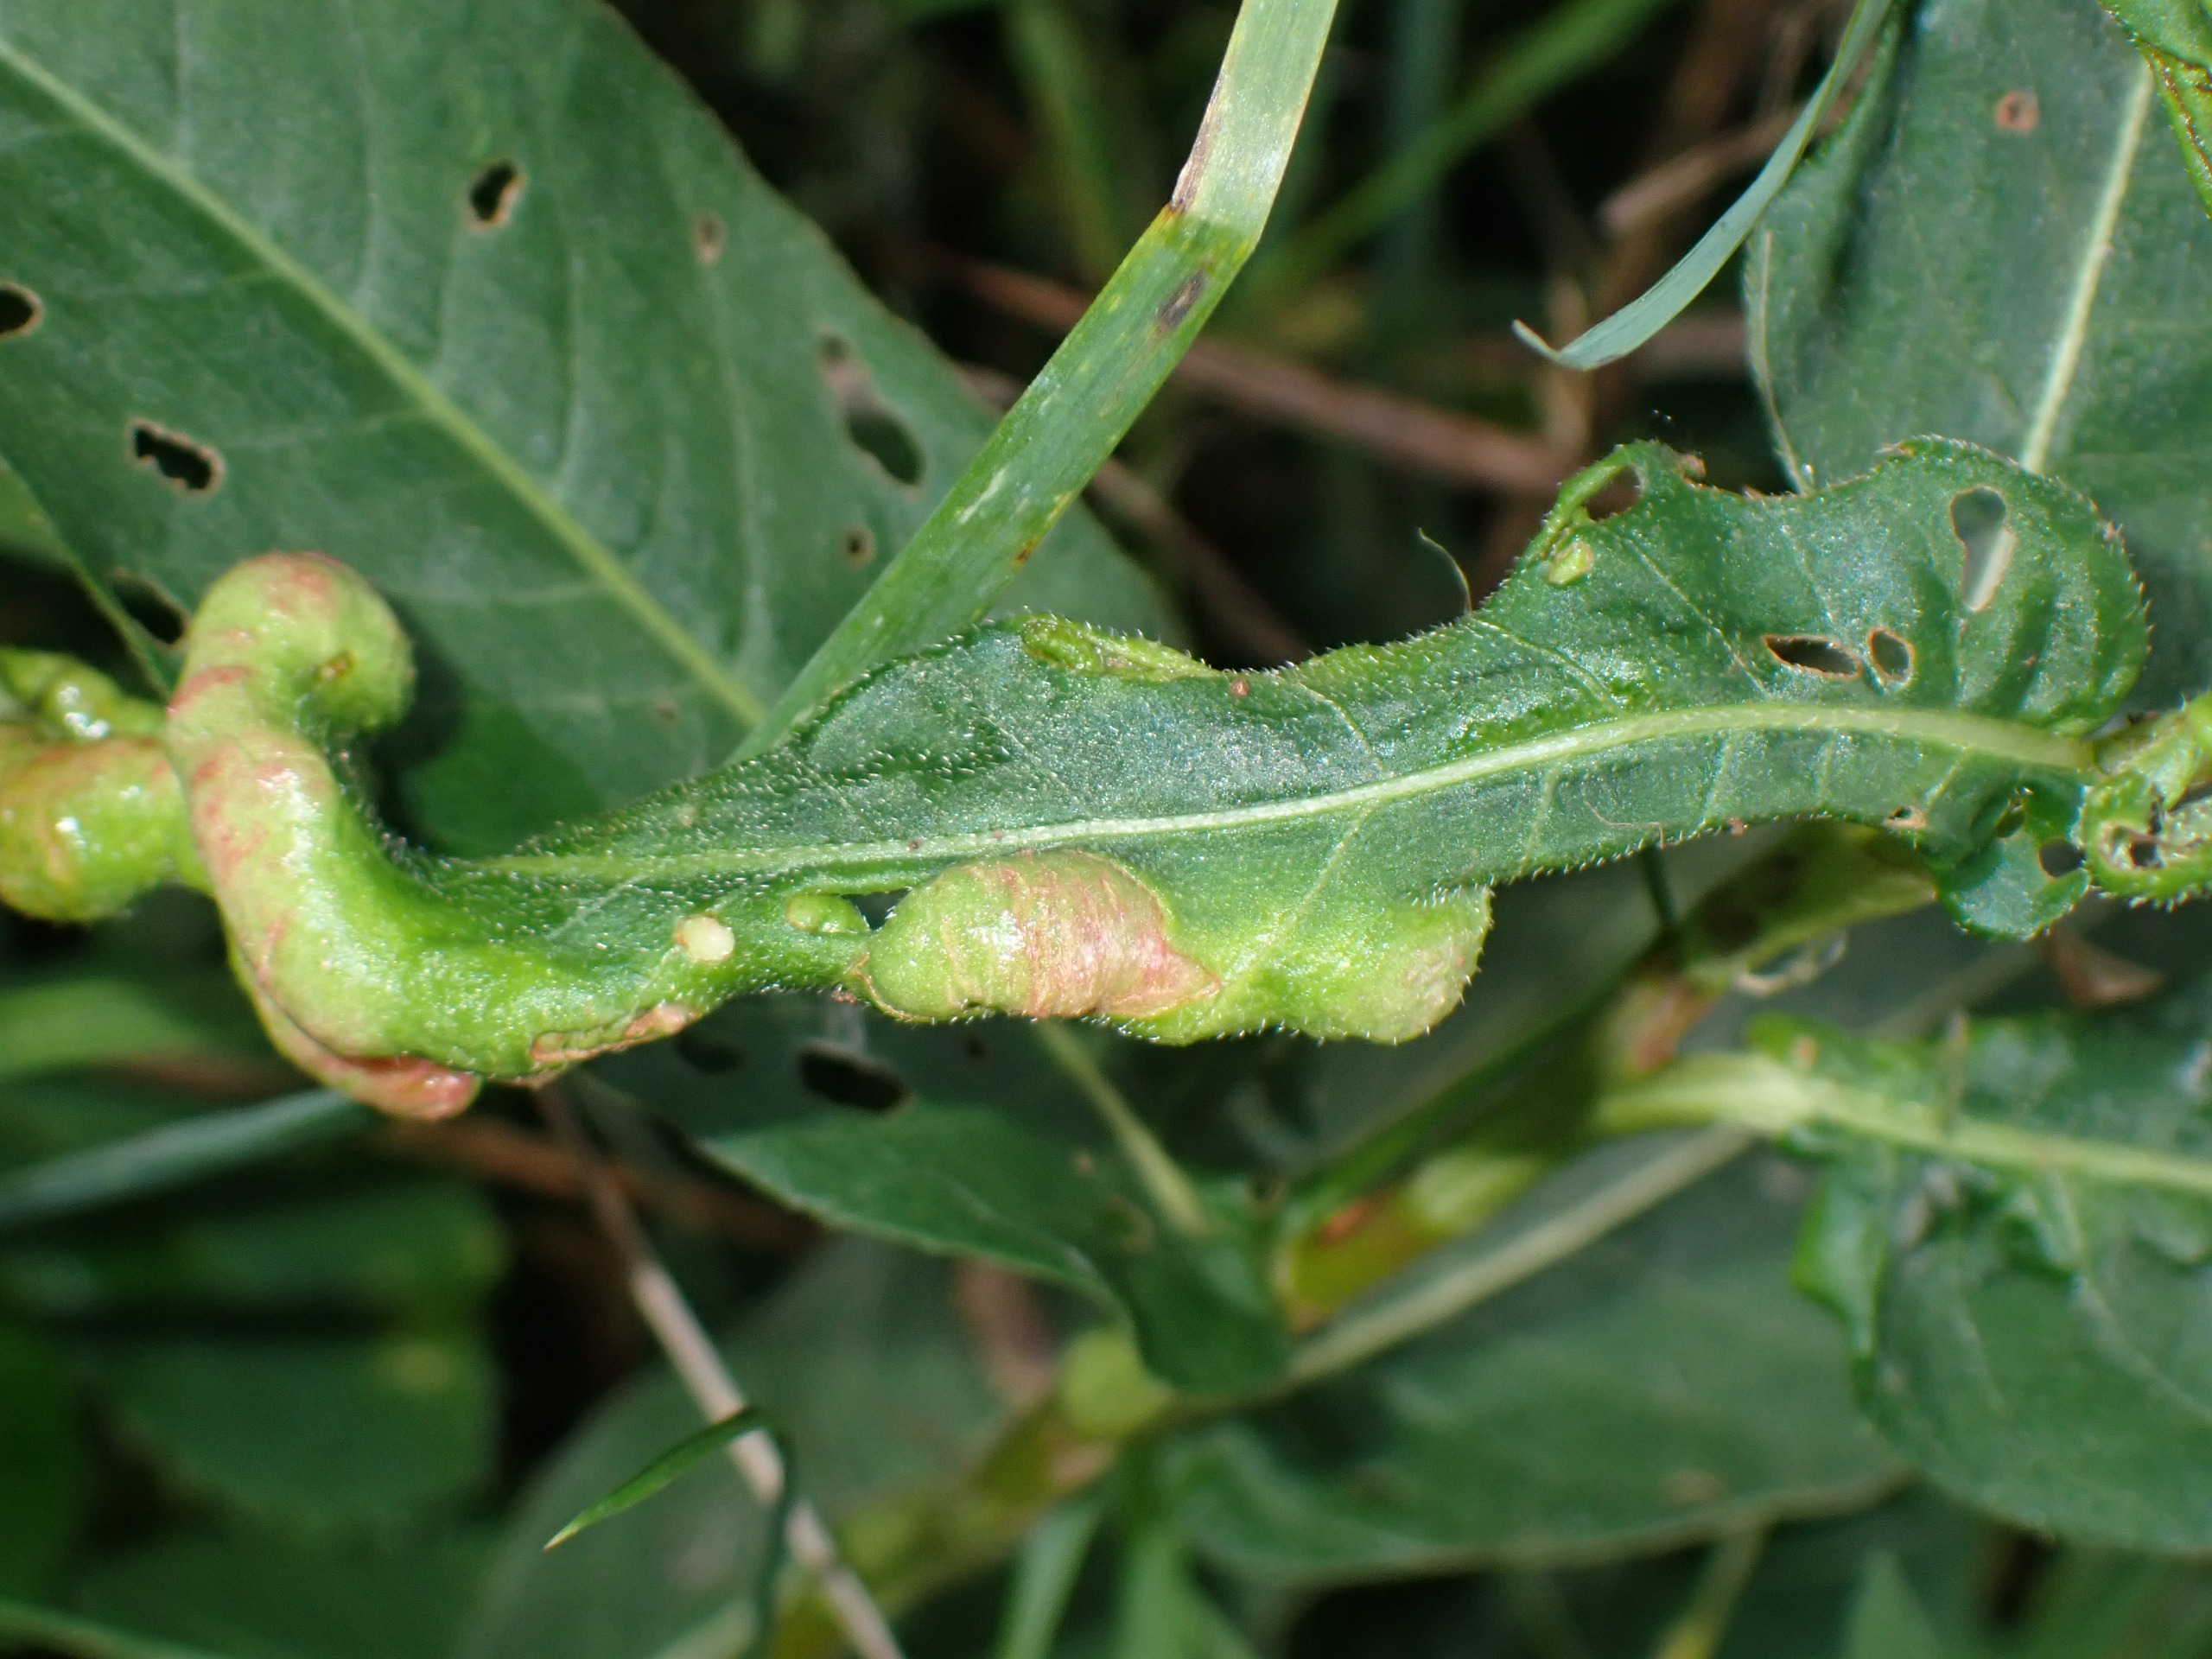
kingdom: Animalia
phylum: Arthropoda
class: Insecta
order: Diptera
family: Cecidomyiidae
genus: Wachtliella
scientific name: Wachtliella persicariae
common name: Pileurtgalmyg
